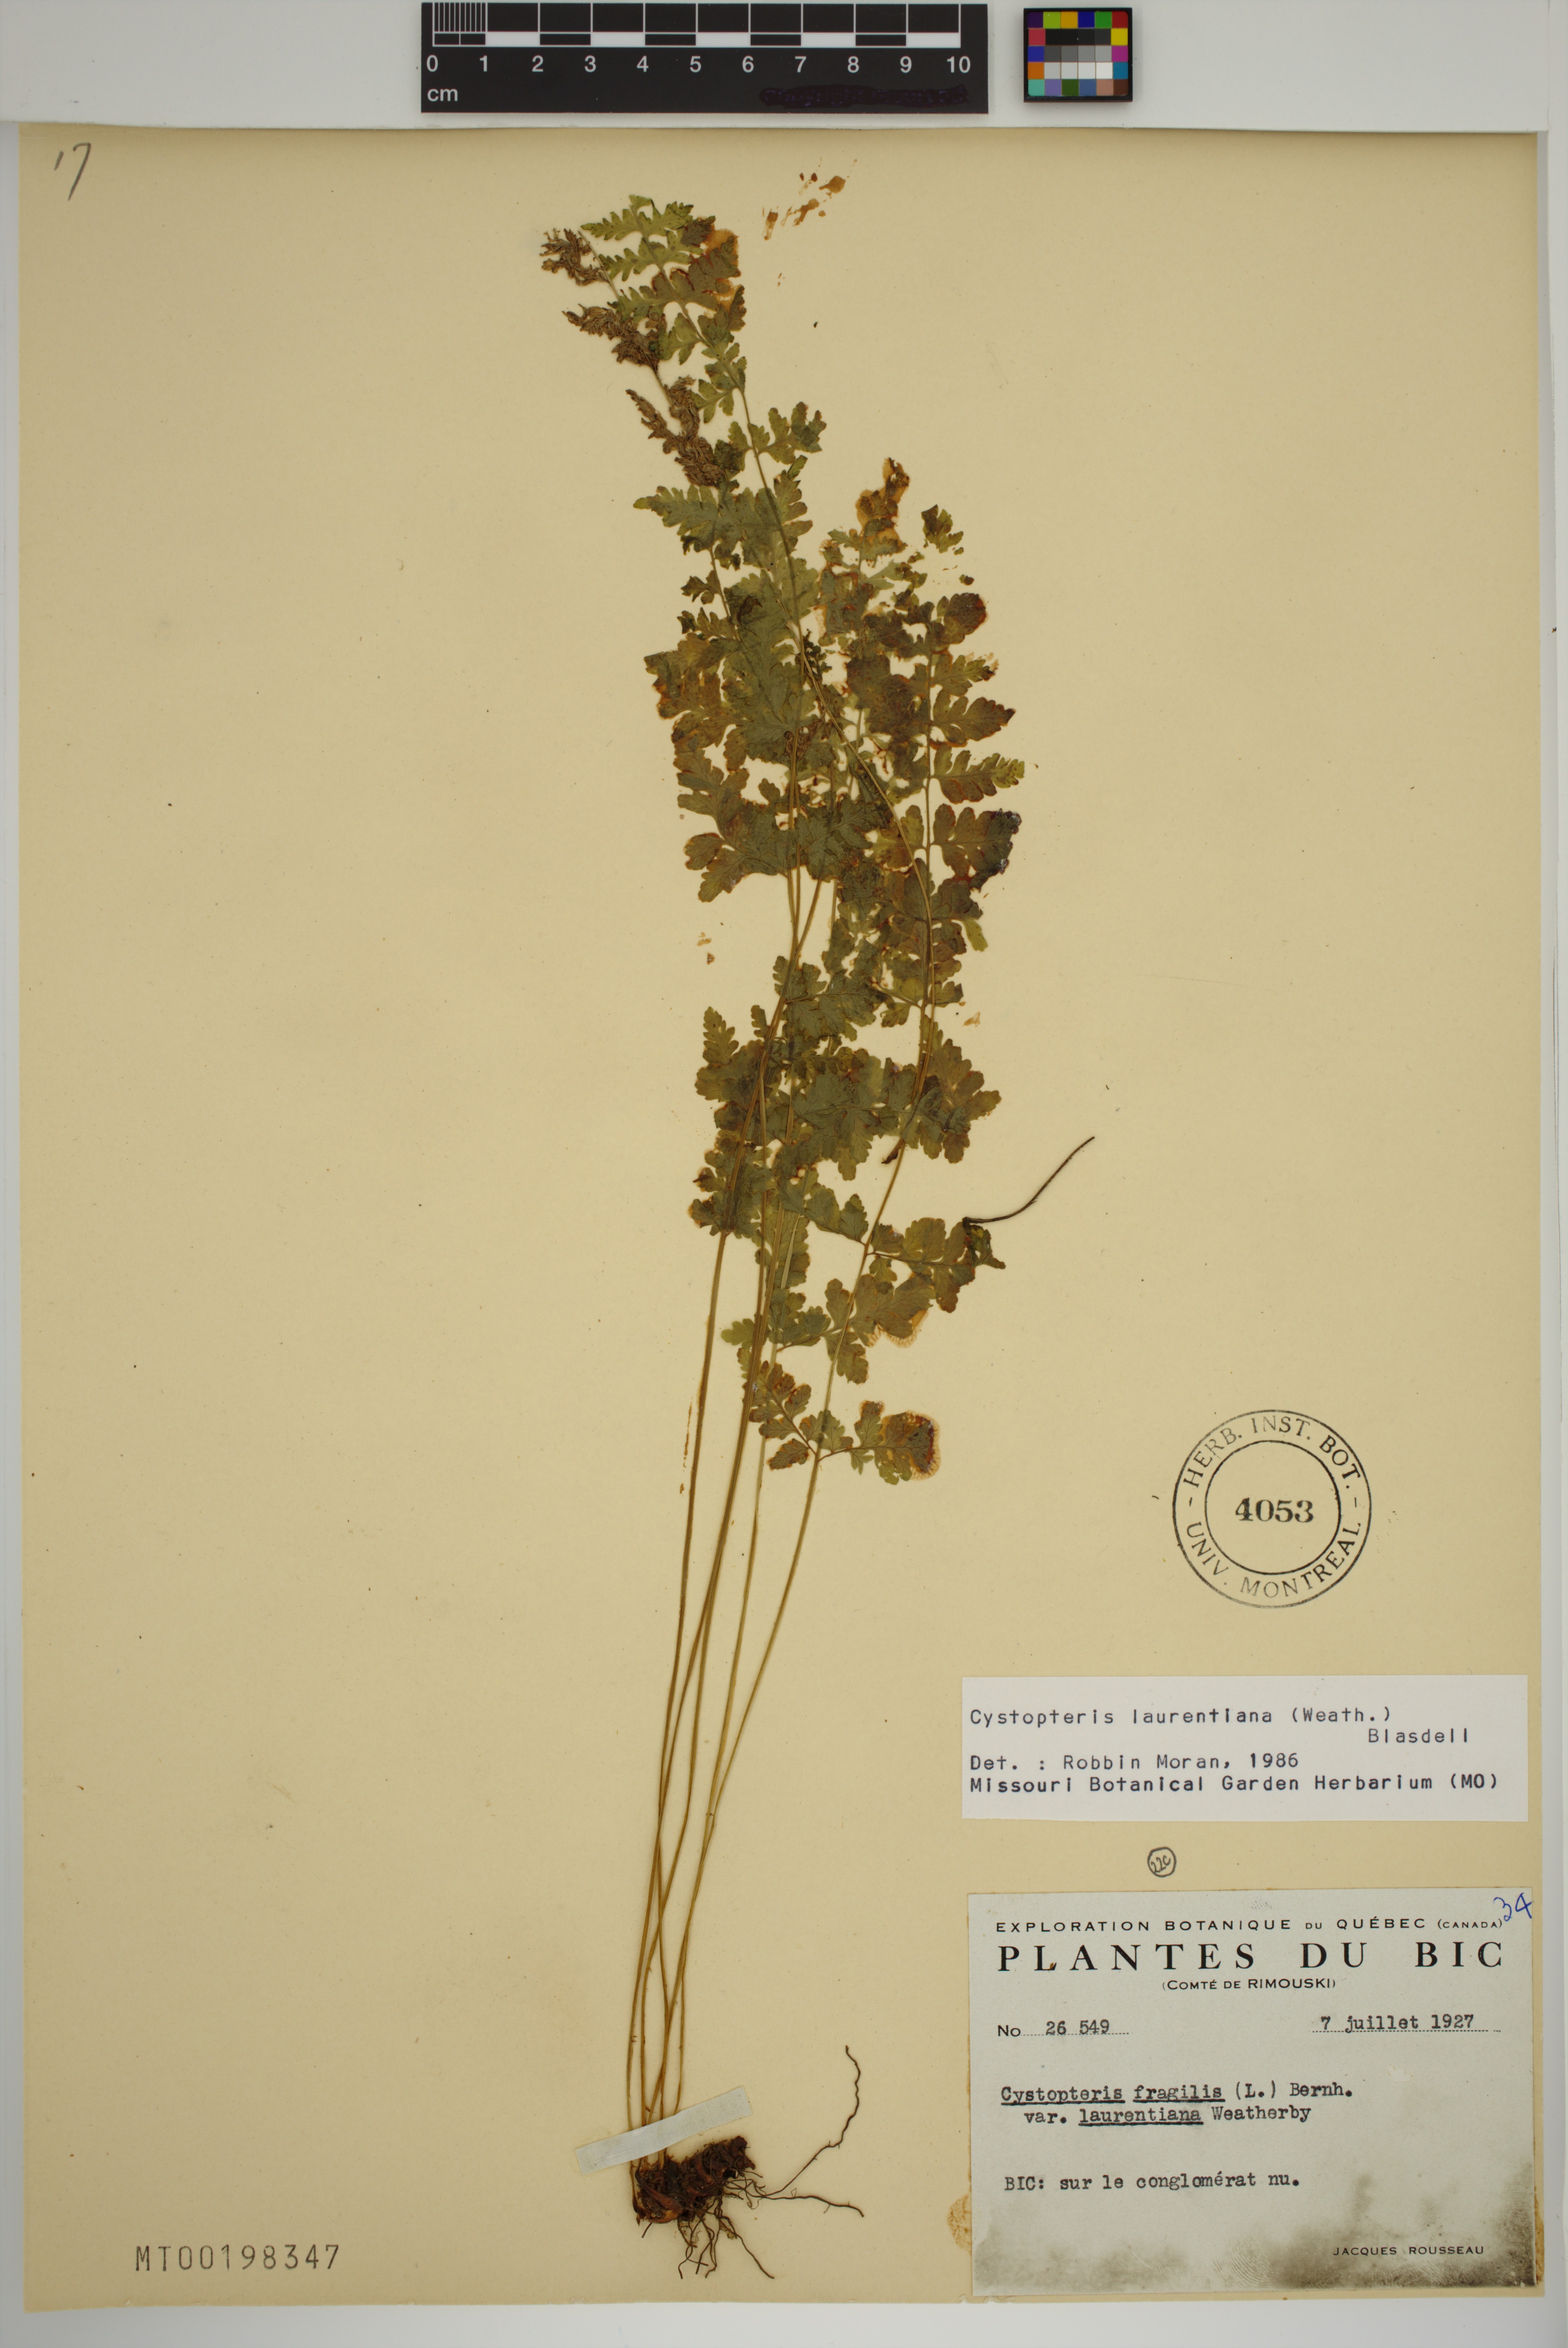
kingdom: Plantae
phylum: Tracheophyta
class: Polypodiopsida
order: Polypodiales
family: Cystopteridaceae
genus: Cystopteris
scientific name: Cystopteris laurentiana
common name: Blasdell's laurentian bladder fern
